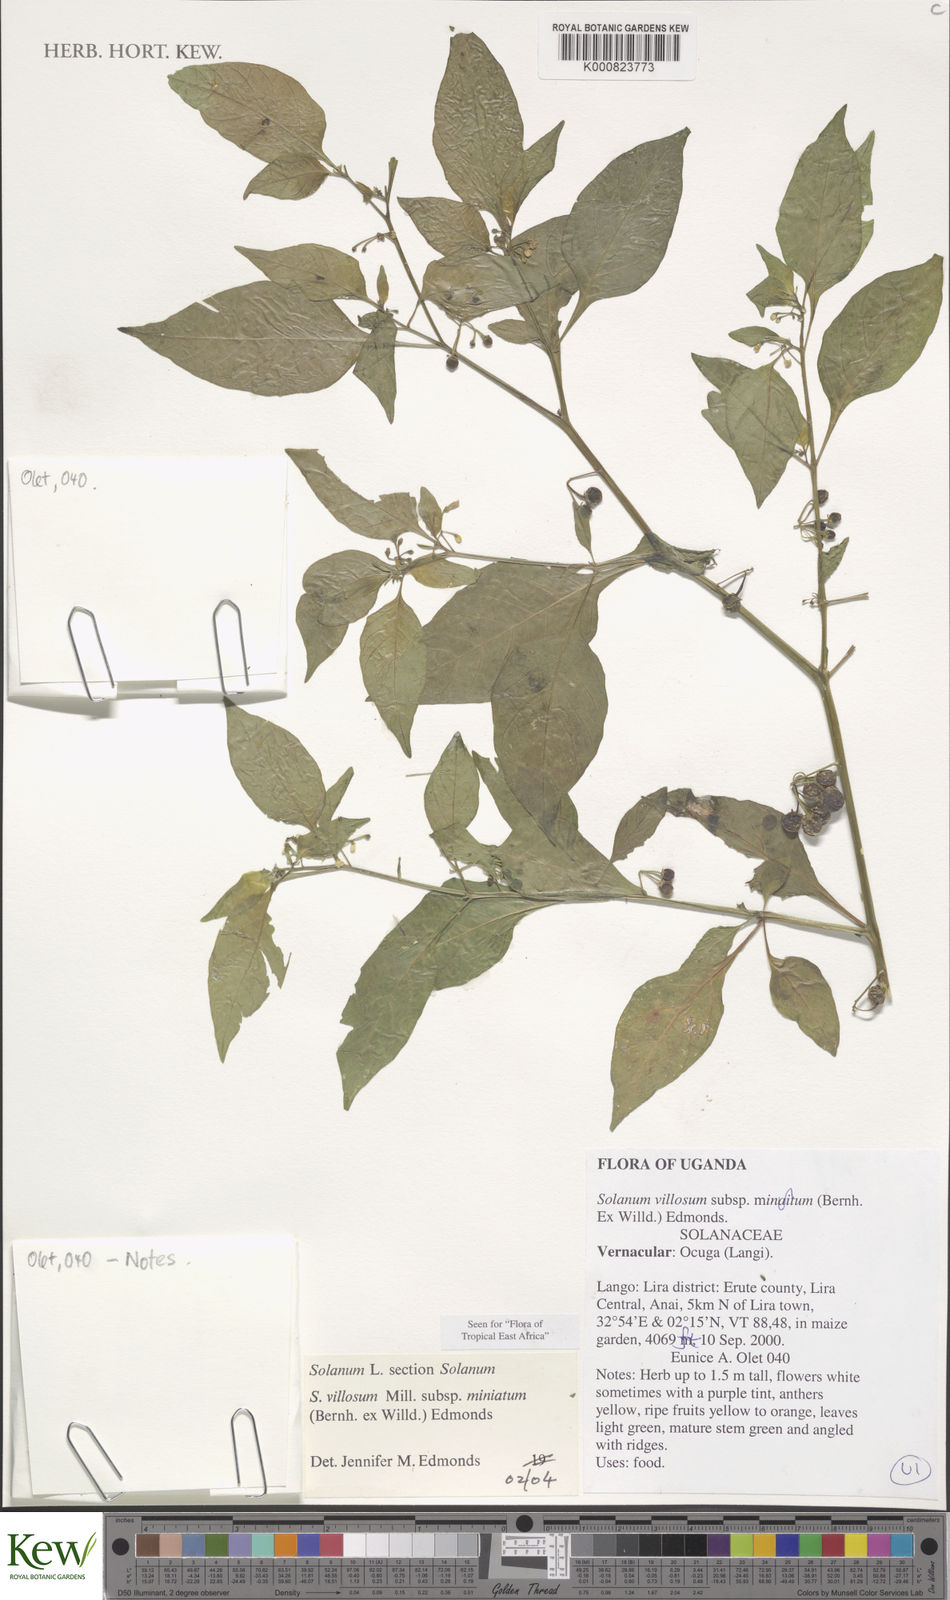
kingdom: Plantae
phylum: Tracheophyta
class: Magnoliopsida
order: Solanales
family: Solanaceae
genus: Solanum
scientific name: Solanum villosum
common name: Red nightshade
